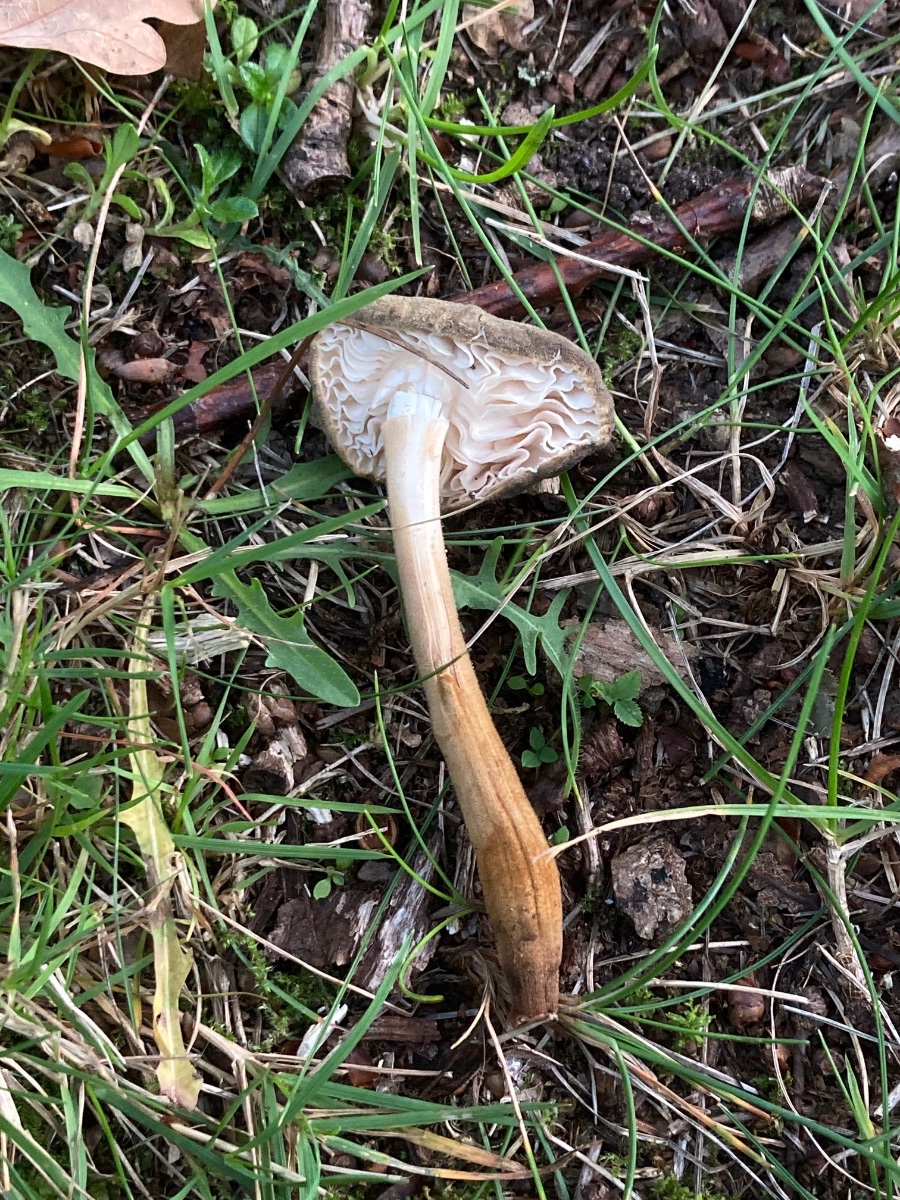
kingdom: Fungi
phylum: Basidiomycota
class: Agaricomycetes
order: Agaricales
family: Physalacriaceae
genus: Xerula
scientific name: Xerula pudens
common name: filtet pælerodshat
